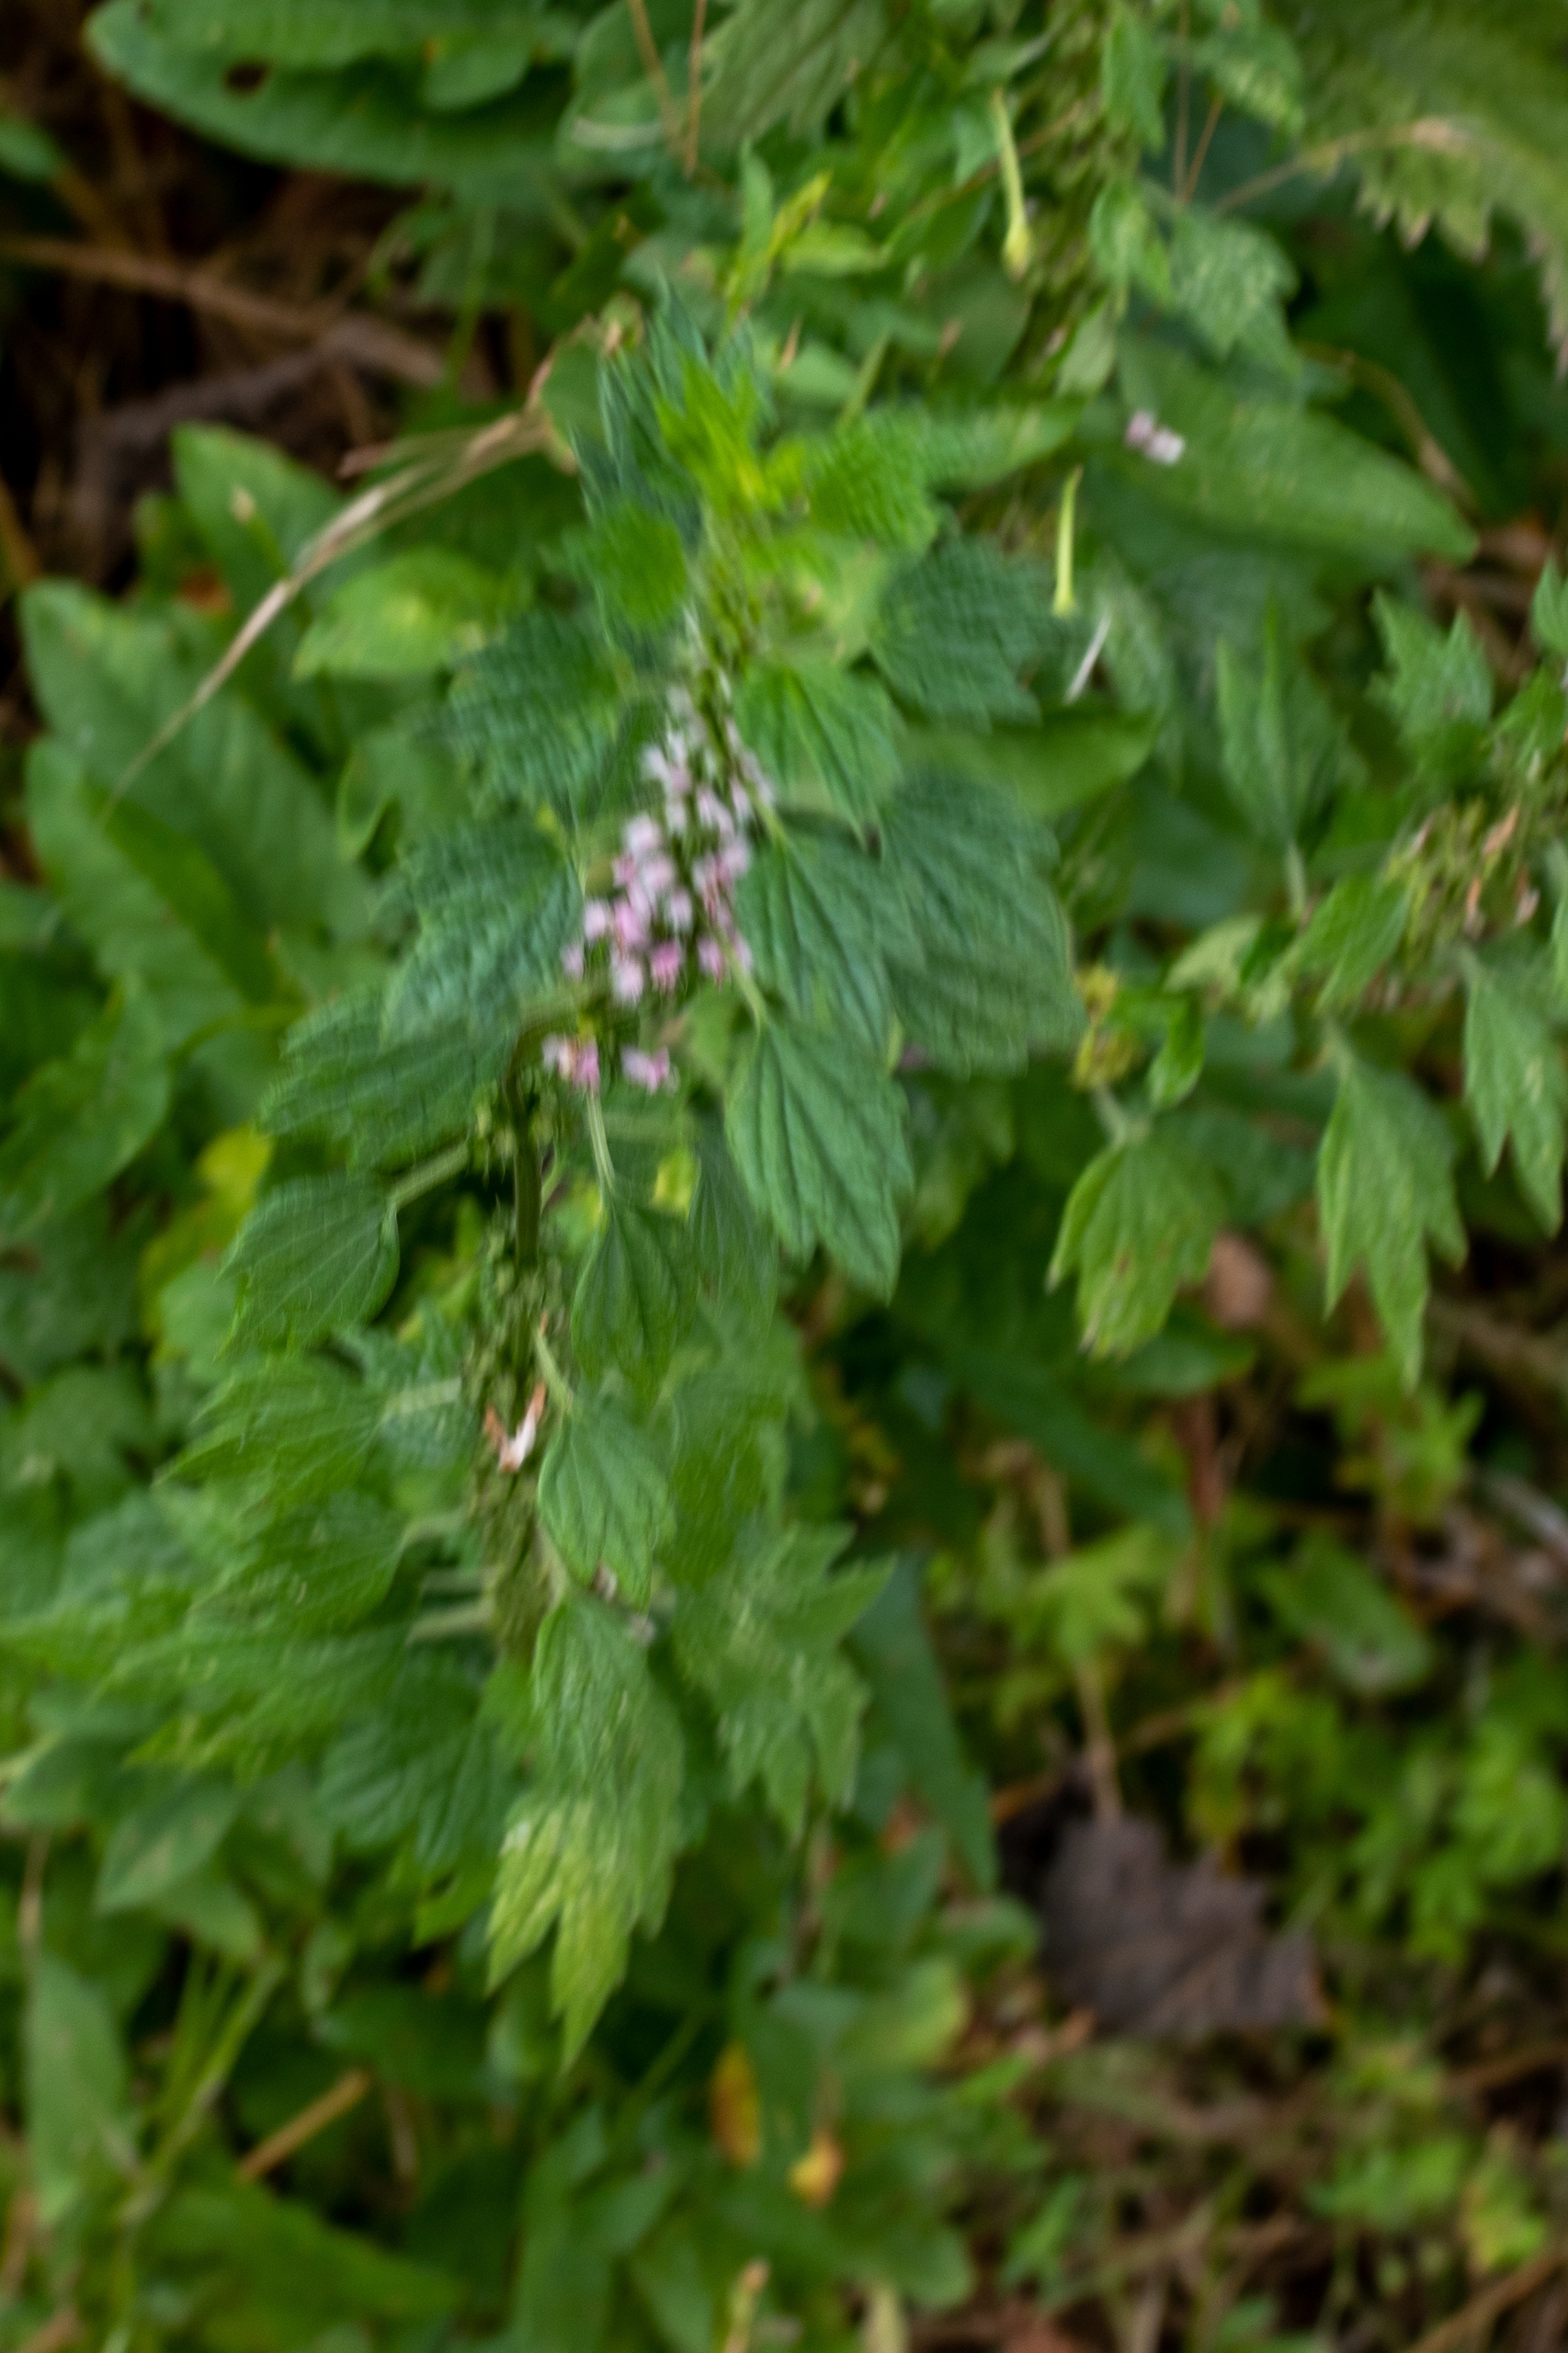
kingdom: Plantae
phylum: Tracheophyta
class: Magnoliopsida
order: Lamiales
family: Lamiaceae
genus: Leonurus
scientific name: Leonurus cardiaca
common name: Hjertespand
